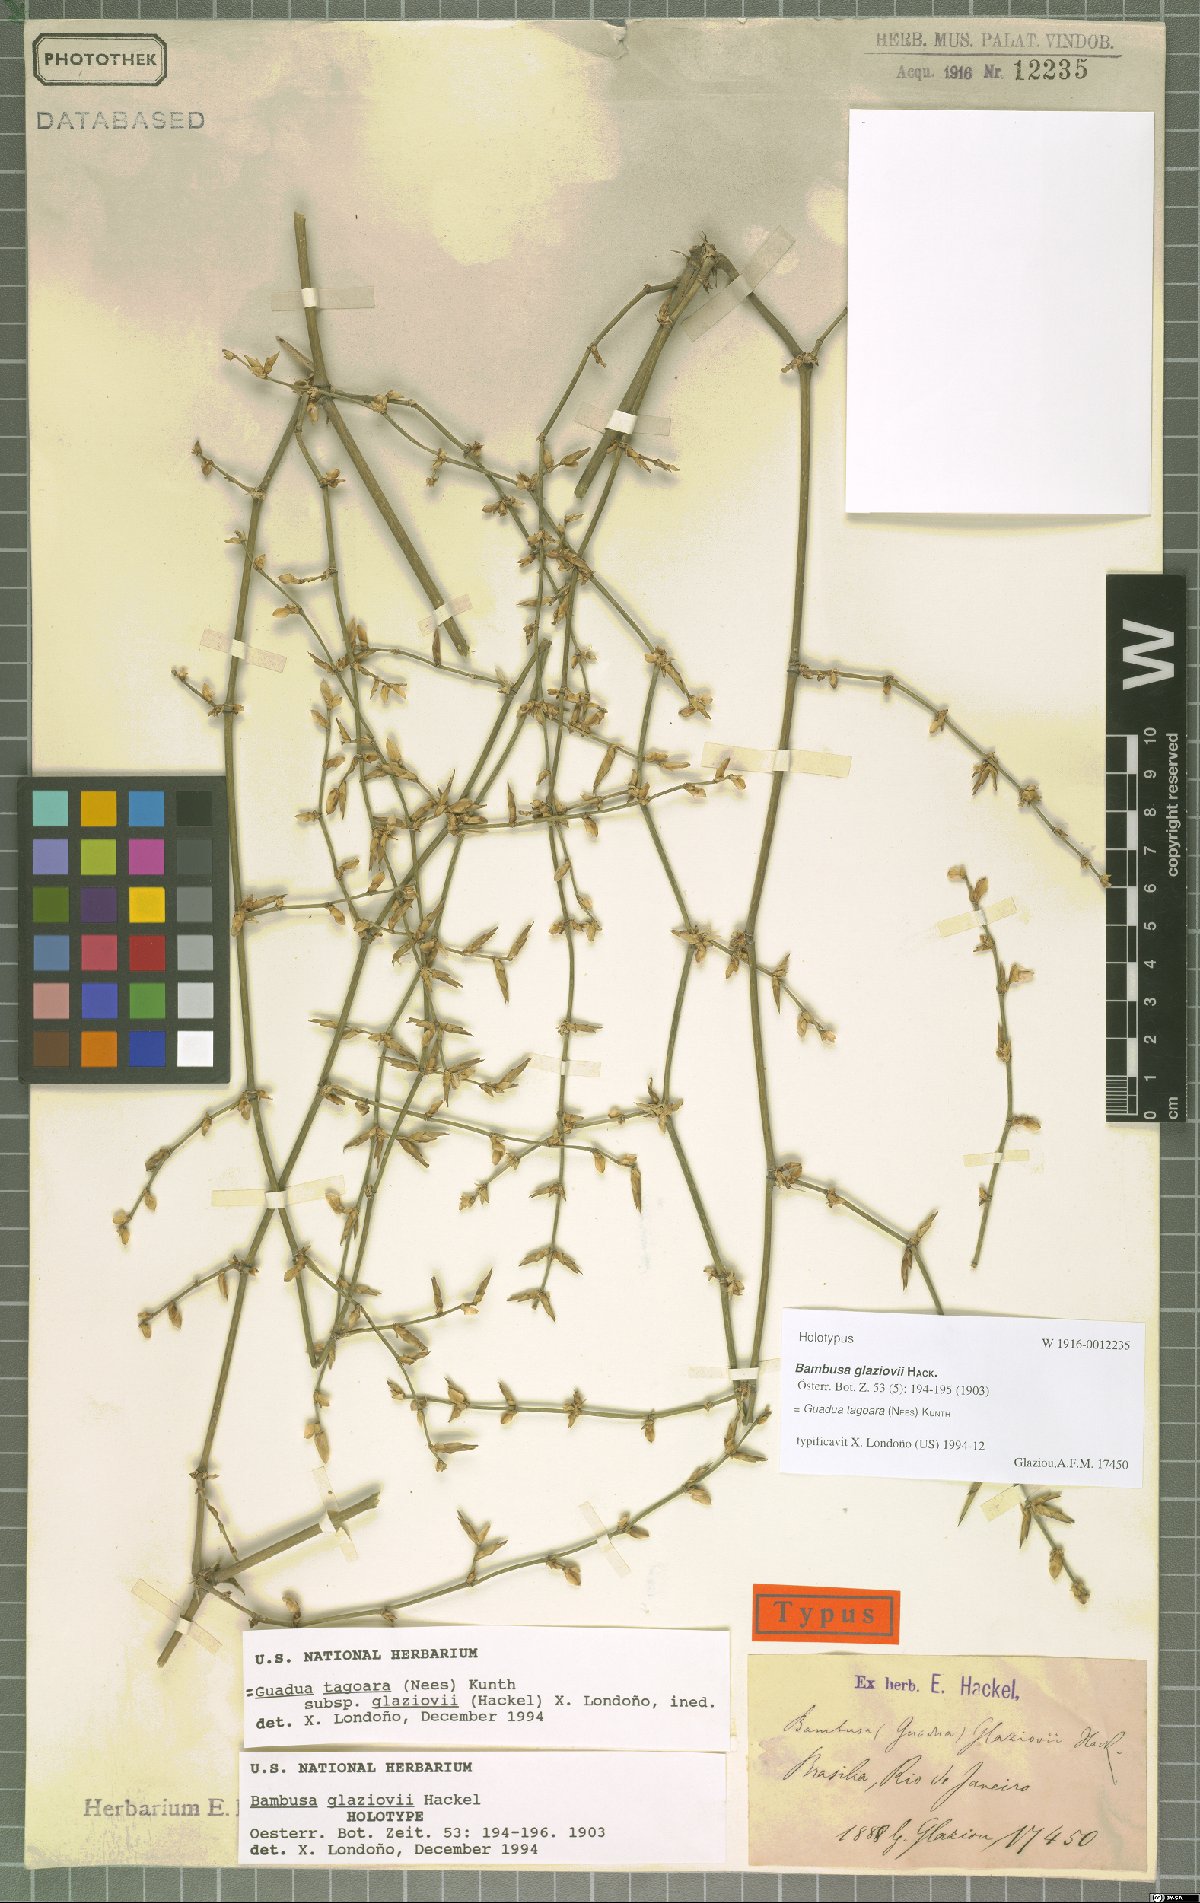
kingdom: Plantae
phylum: Tracheophyta
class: Liliopsida
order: Poales
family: Poaceae
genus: Guadua
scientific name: Guadua tagoara
